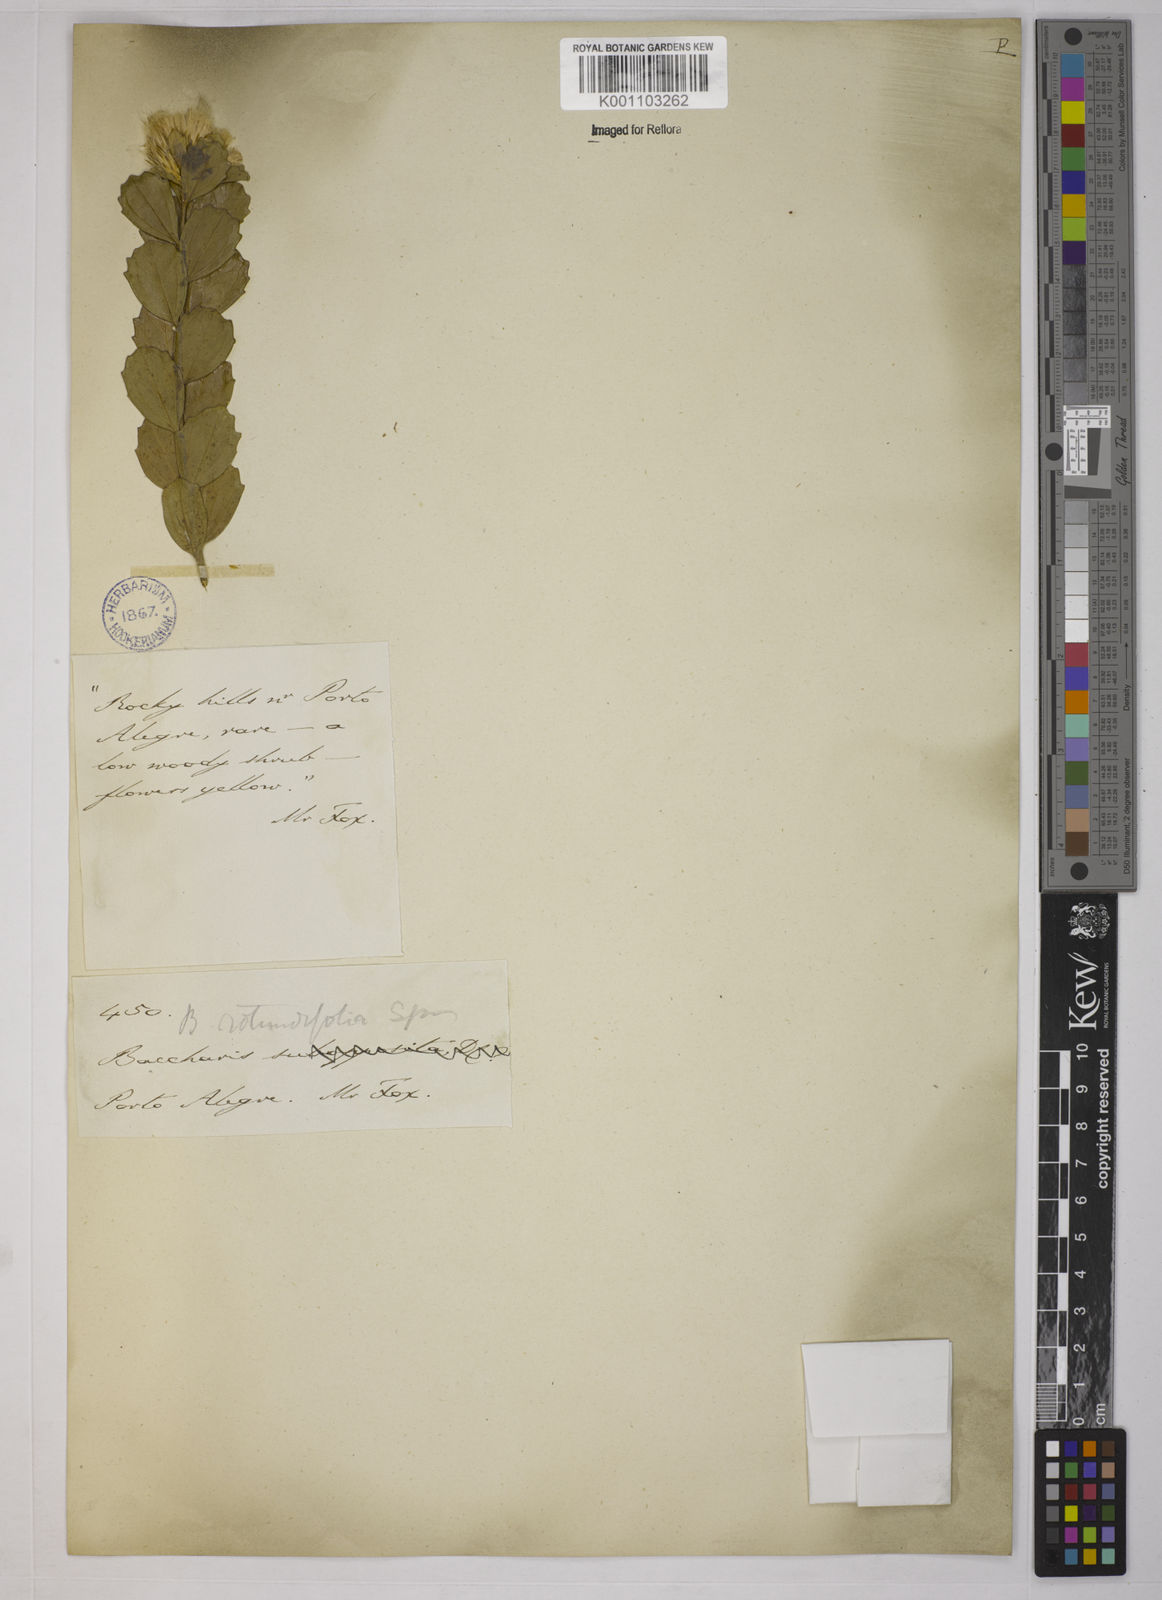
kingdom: Plantae
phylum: Tracheophyta
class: Magnoliopsida
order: Asterales
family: Asteraceae
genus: Baccharis
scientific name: Baccharis sessiliflora
